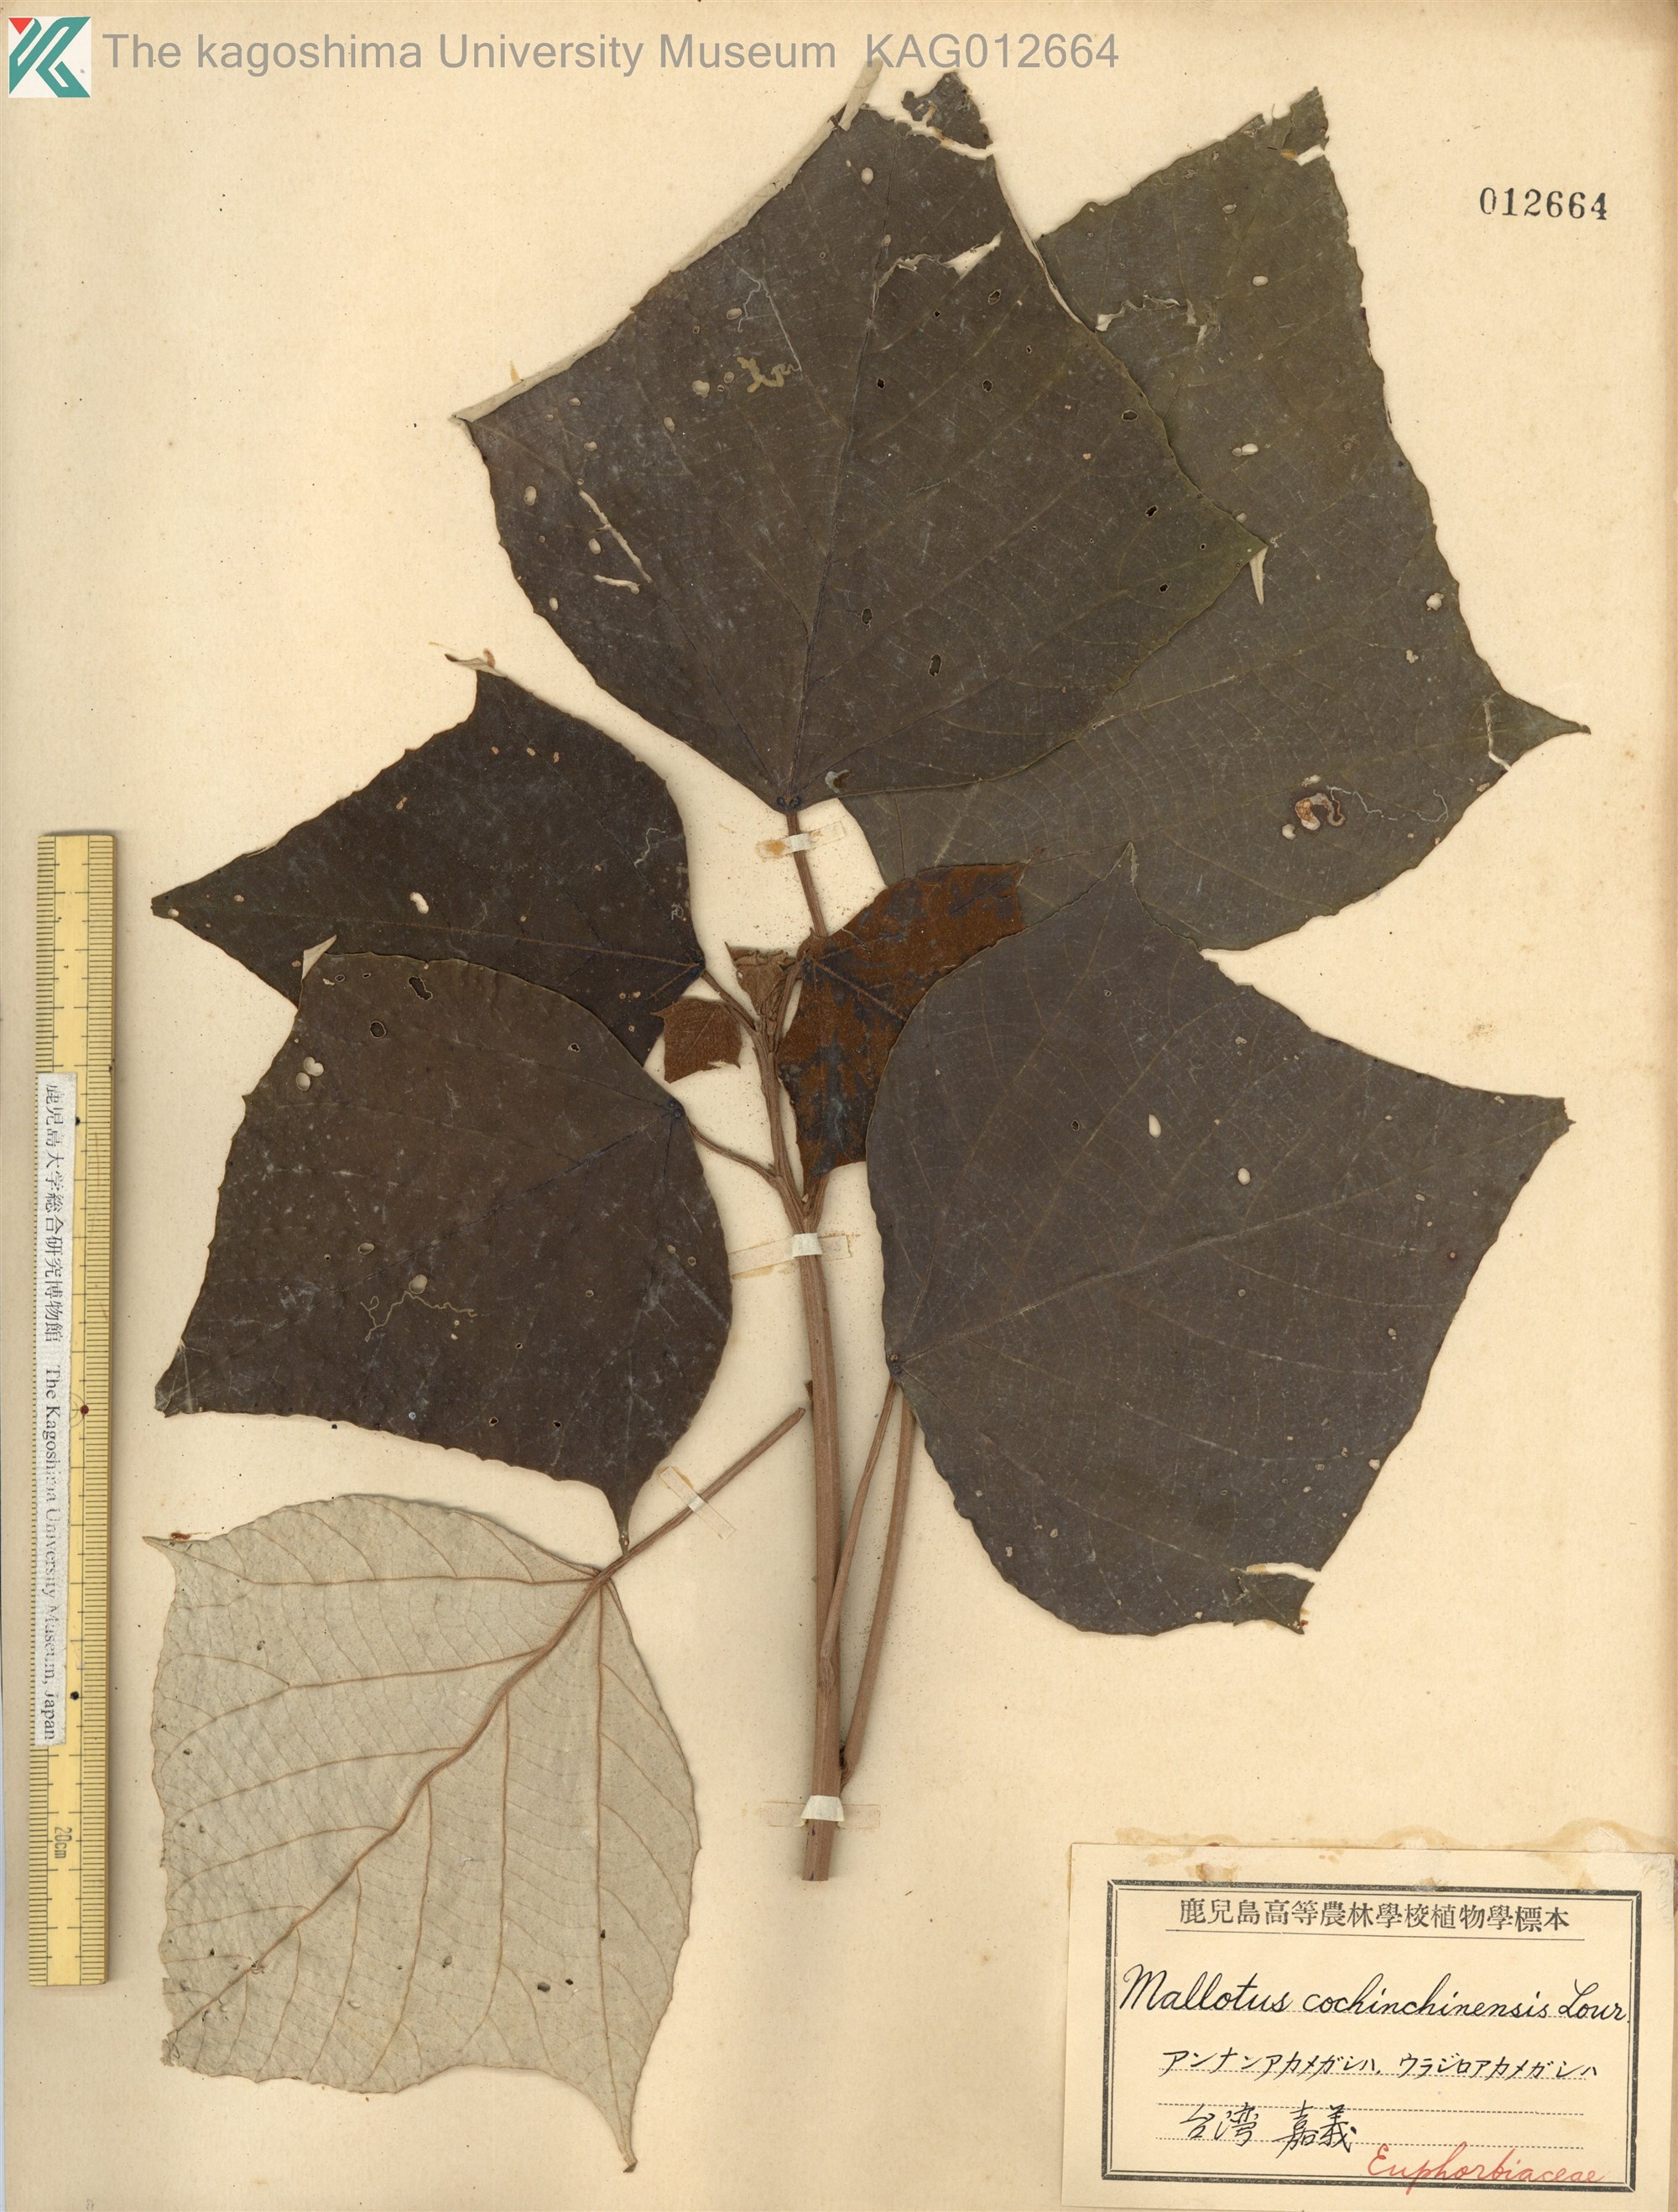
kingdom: Plantae
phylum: Tracheophyta
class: Magnoliopsida
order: Malpighiales
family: Euphorbiaceae
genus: Mallotus
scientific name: Mallotus paniculatus
